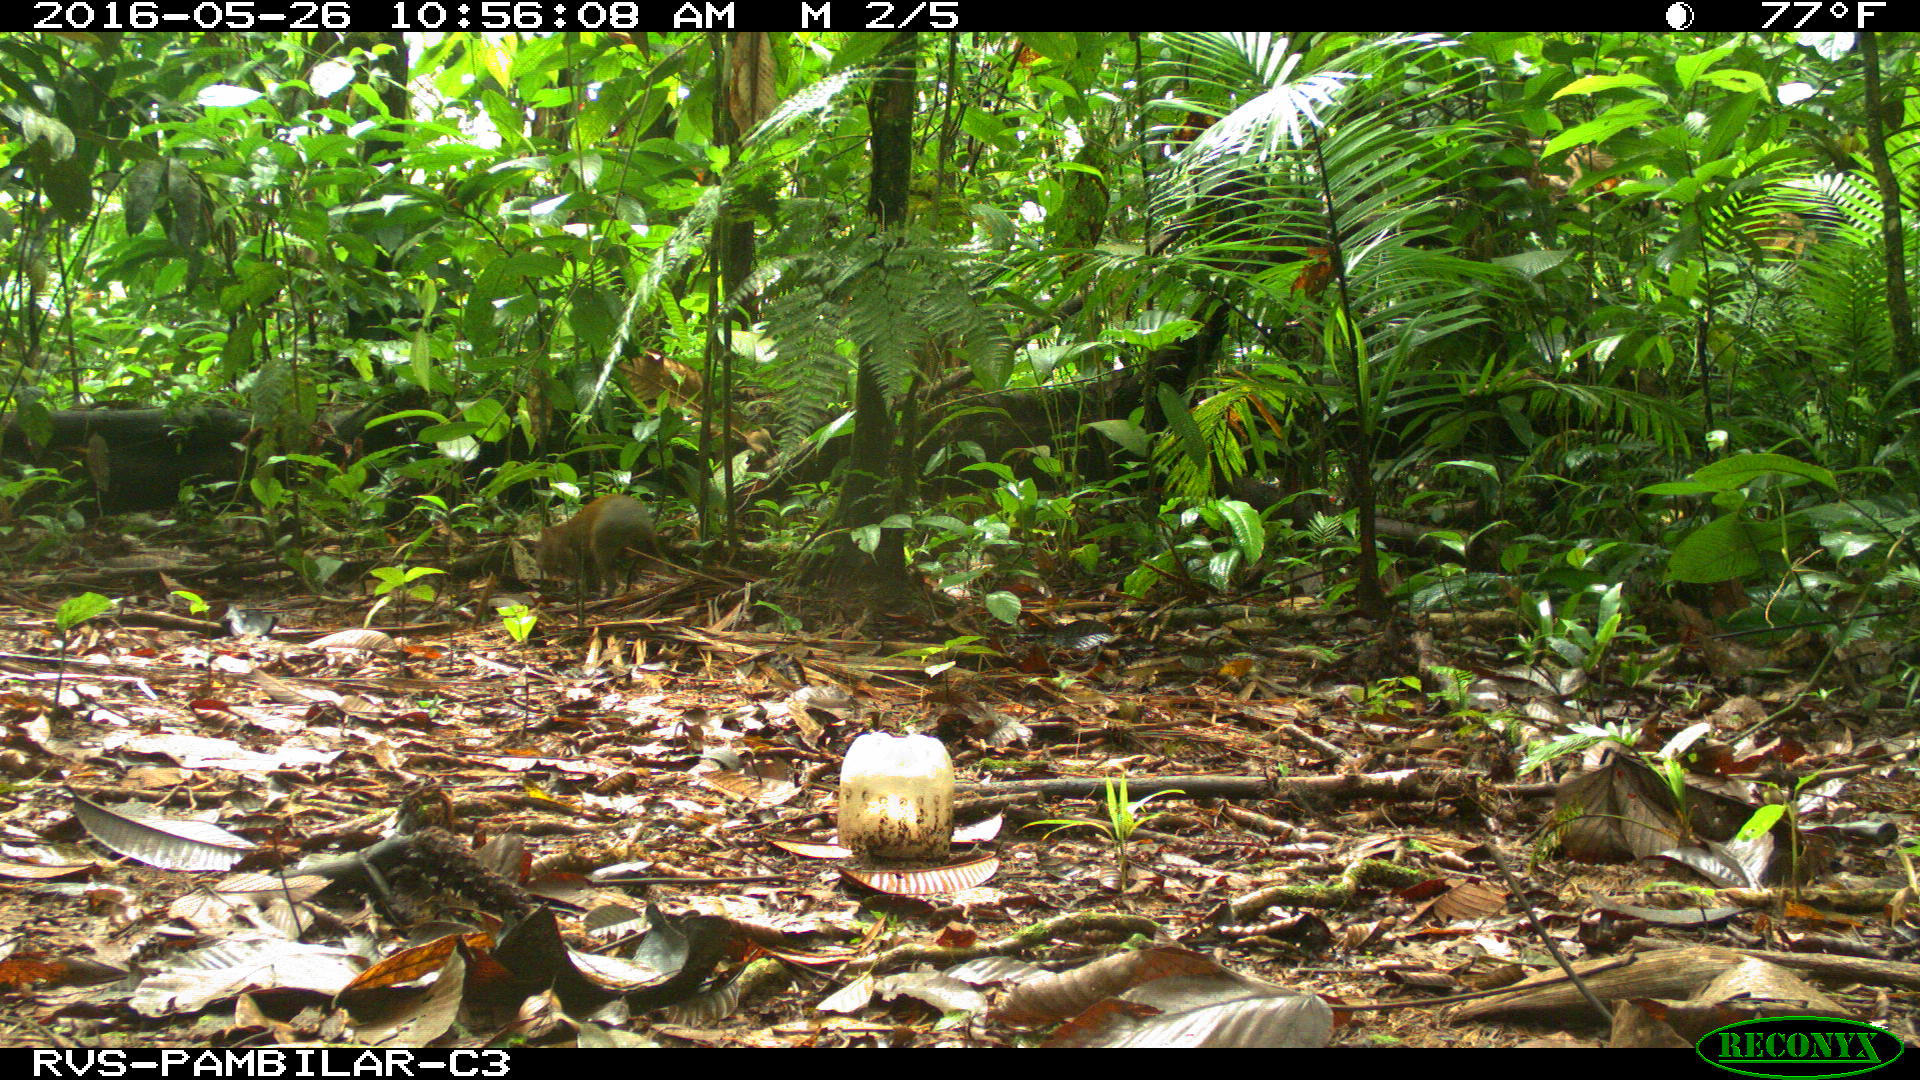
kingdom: Animalia
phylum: Chordata
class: Mammalia
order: Rodentia
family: Dasyproctidae
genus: Dasyprocta
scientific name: Dasyprocta punctata
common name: Central american agouti
